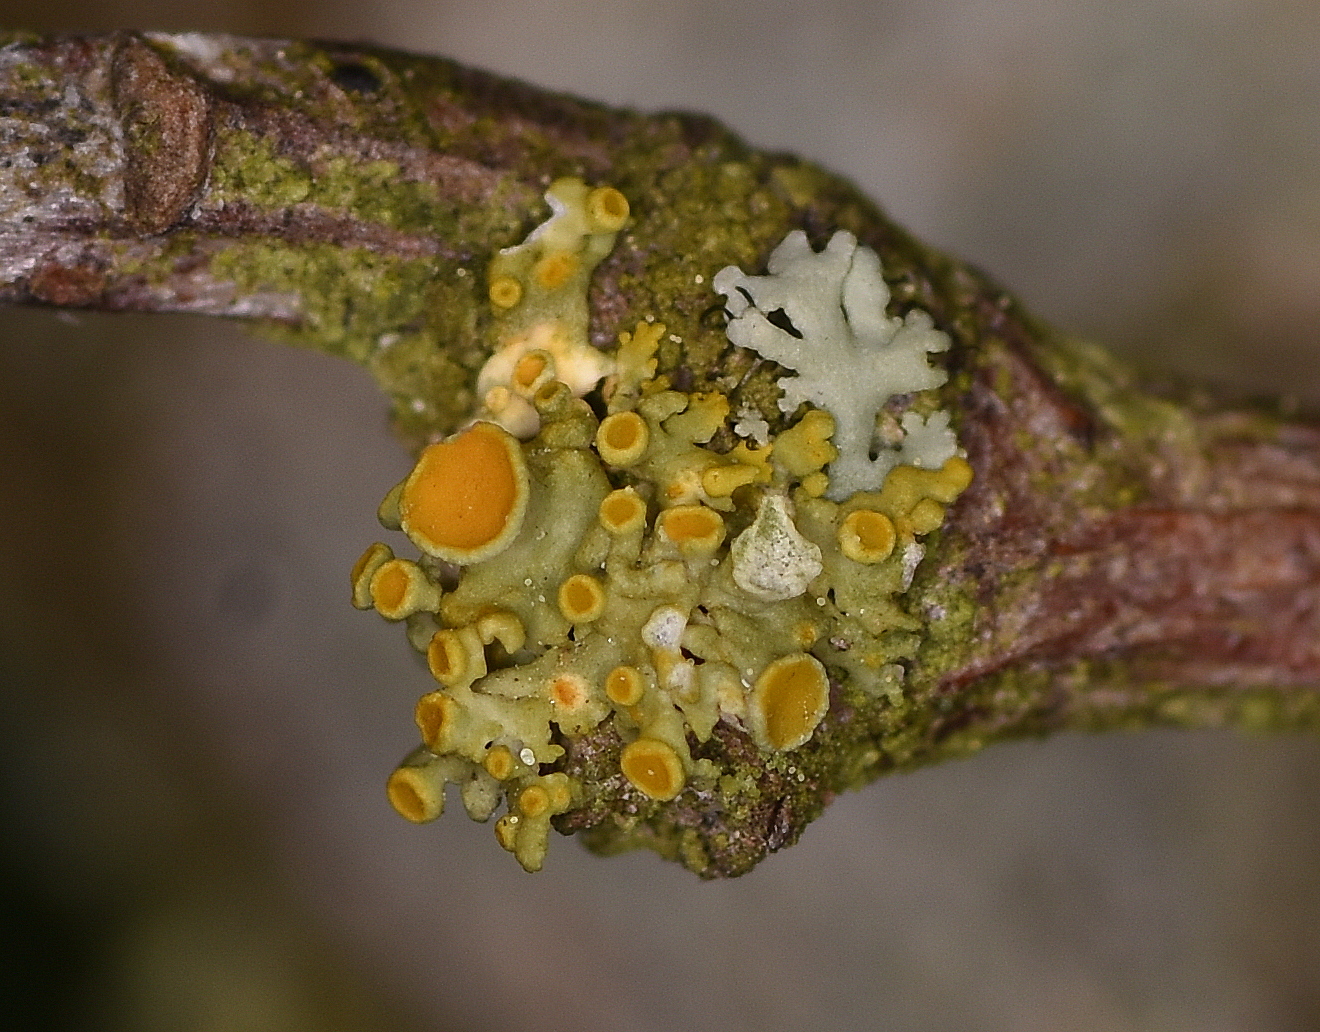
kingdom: Fungi
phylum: Ascomycota
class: Lecanoromycetes
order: Teloschistales
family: Teloschistaceae
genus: Polycauliona
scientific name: Polycauliona polycarpa
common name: mangefrugtet orangelav
